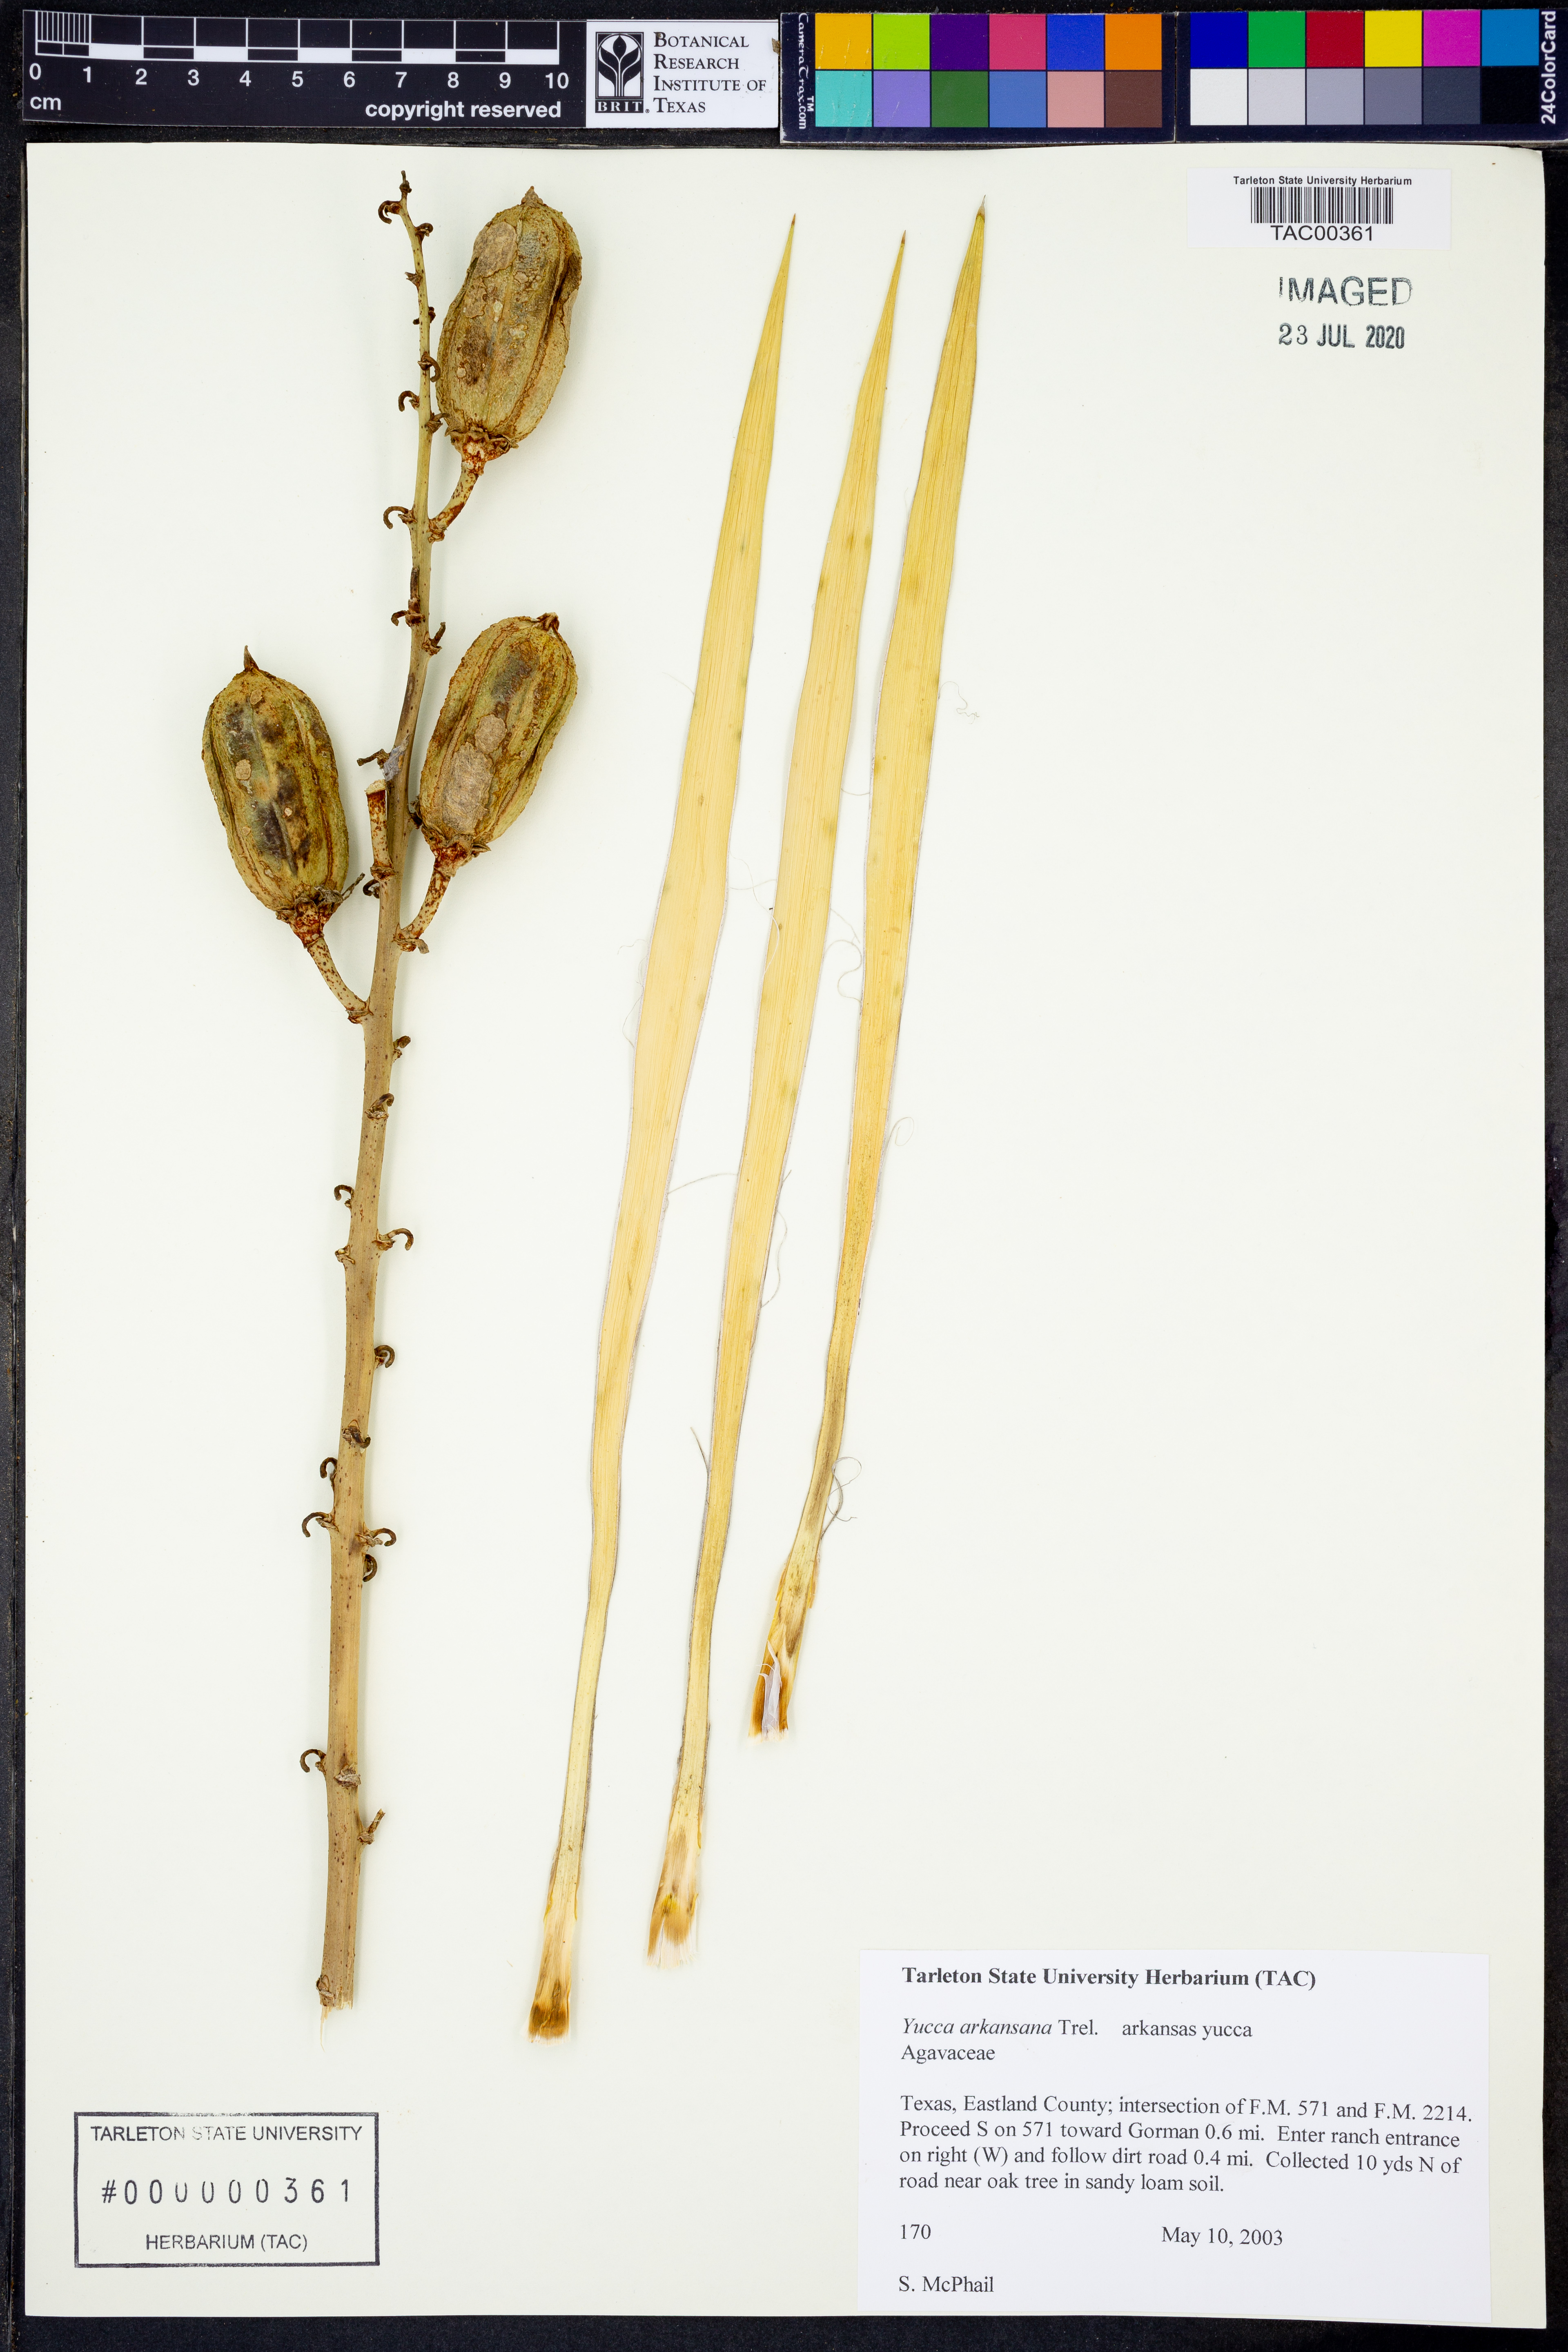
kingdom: Plantae
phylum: Tracheophyta
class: Liliopsida
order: Asparagales
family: Asparagaceae
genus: Yucca
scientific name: Yucca arkansana
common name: Arkansas yucca
